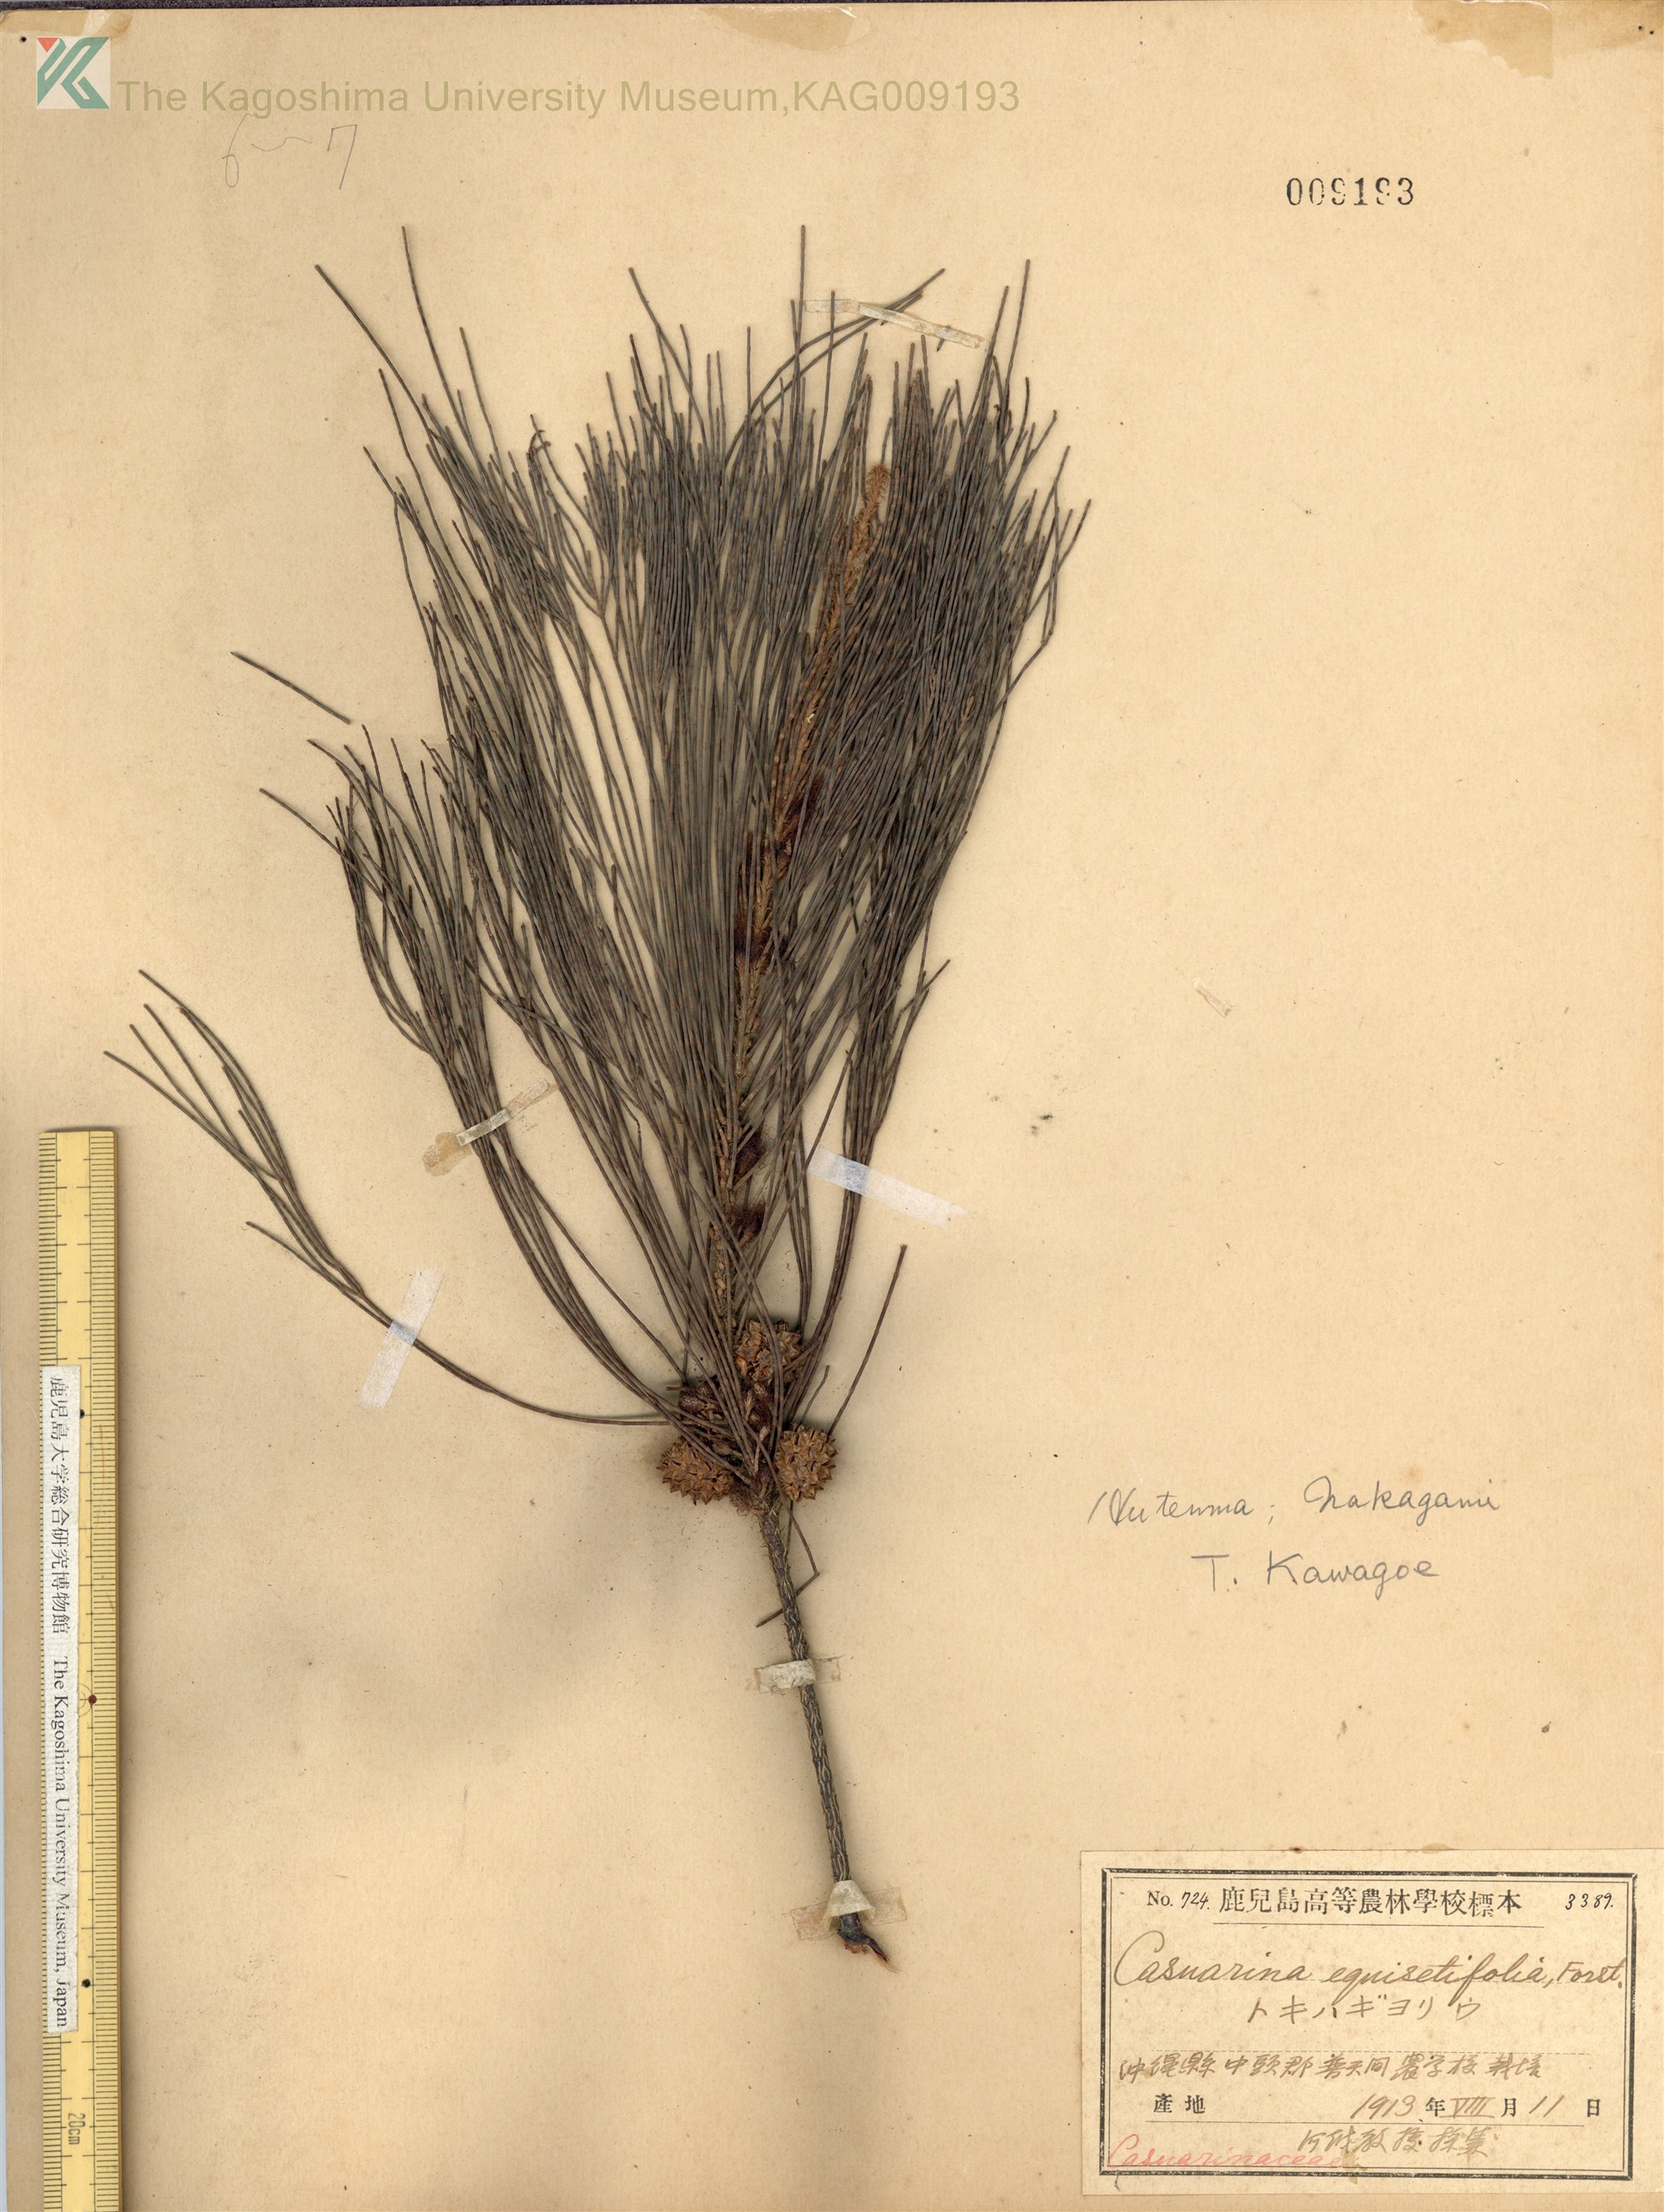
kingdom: Plantae
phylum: Tracheophyta
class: Magnoliopsida
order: Fagales
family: Casuarinaceae
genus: Casuarina
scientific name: Casuarina equisetifolia
